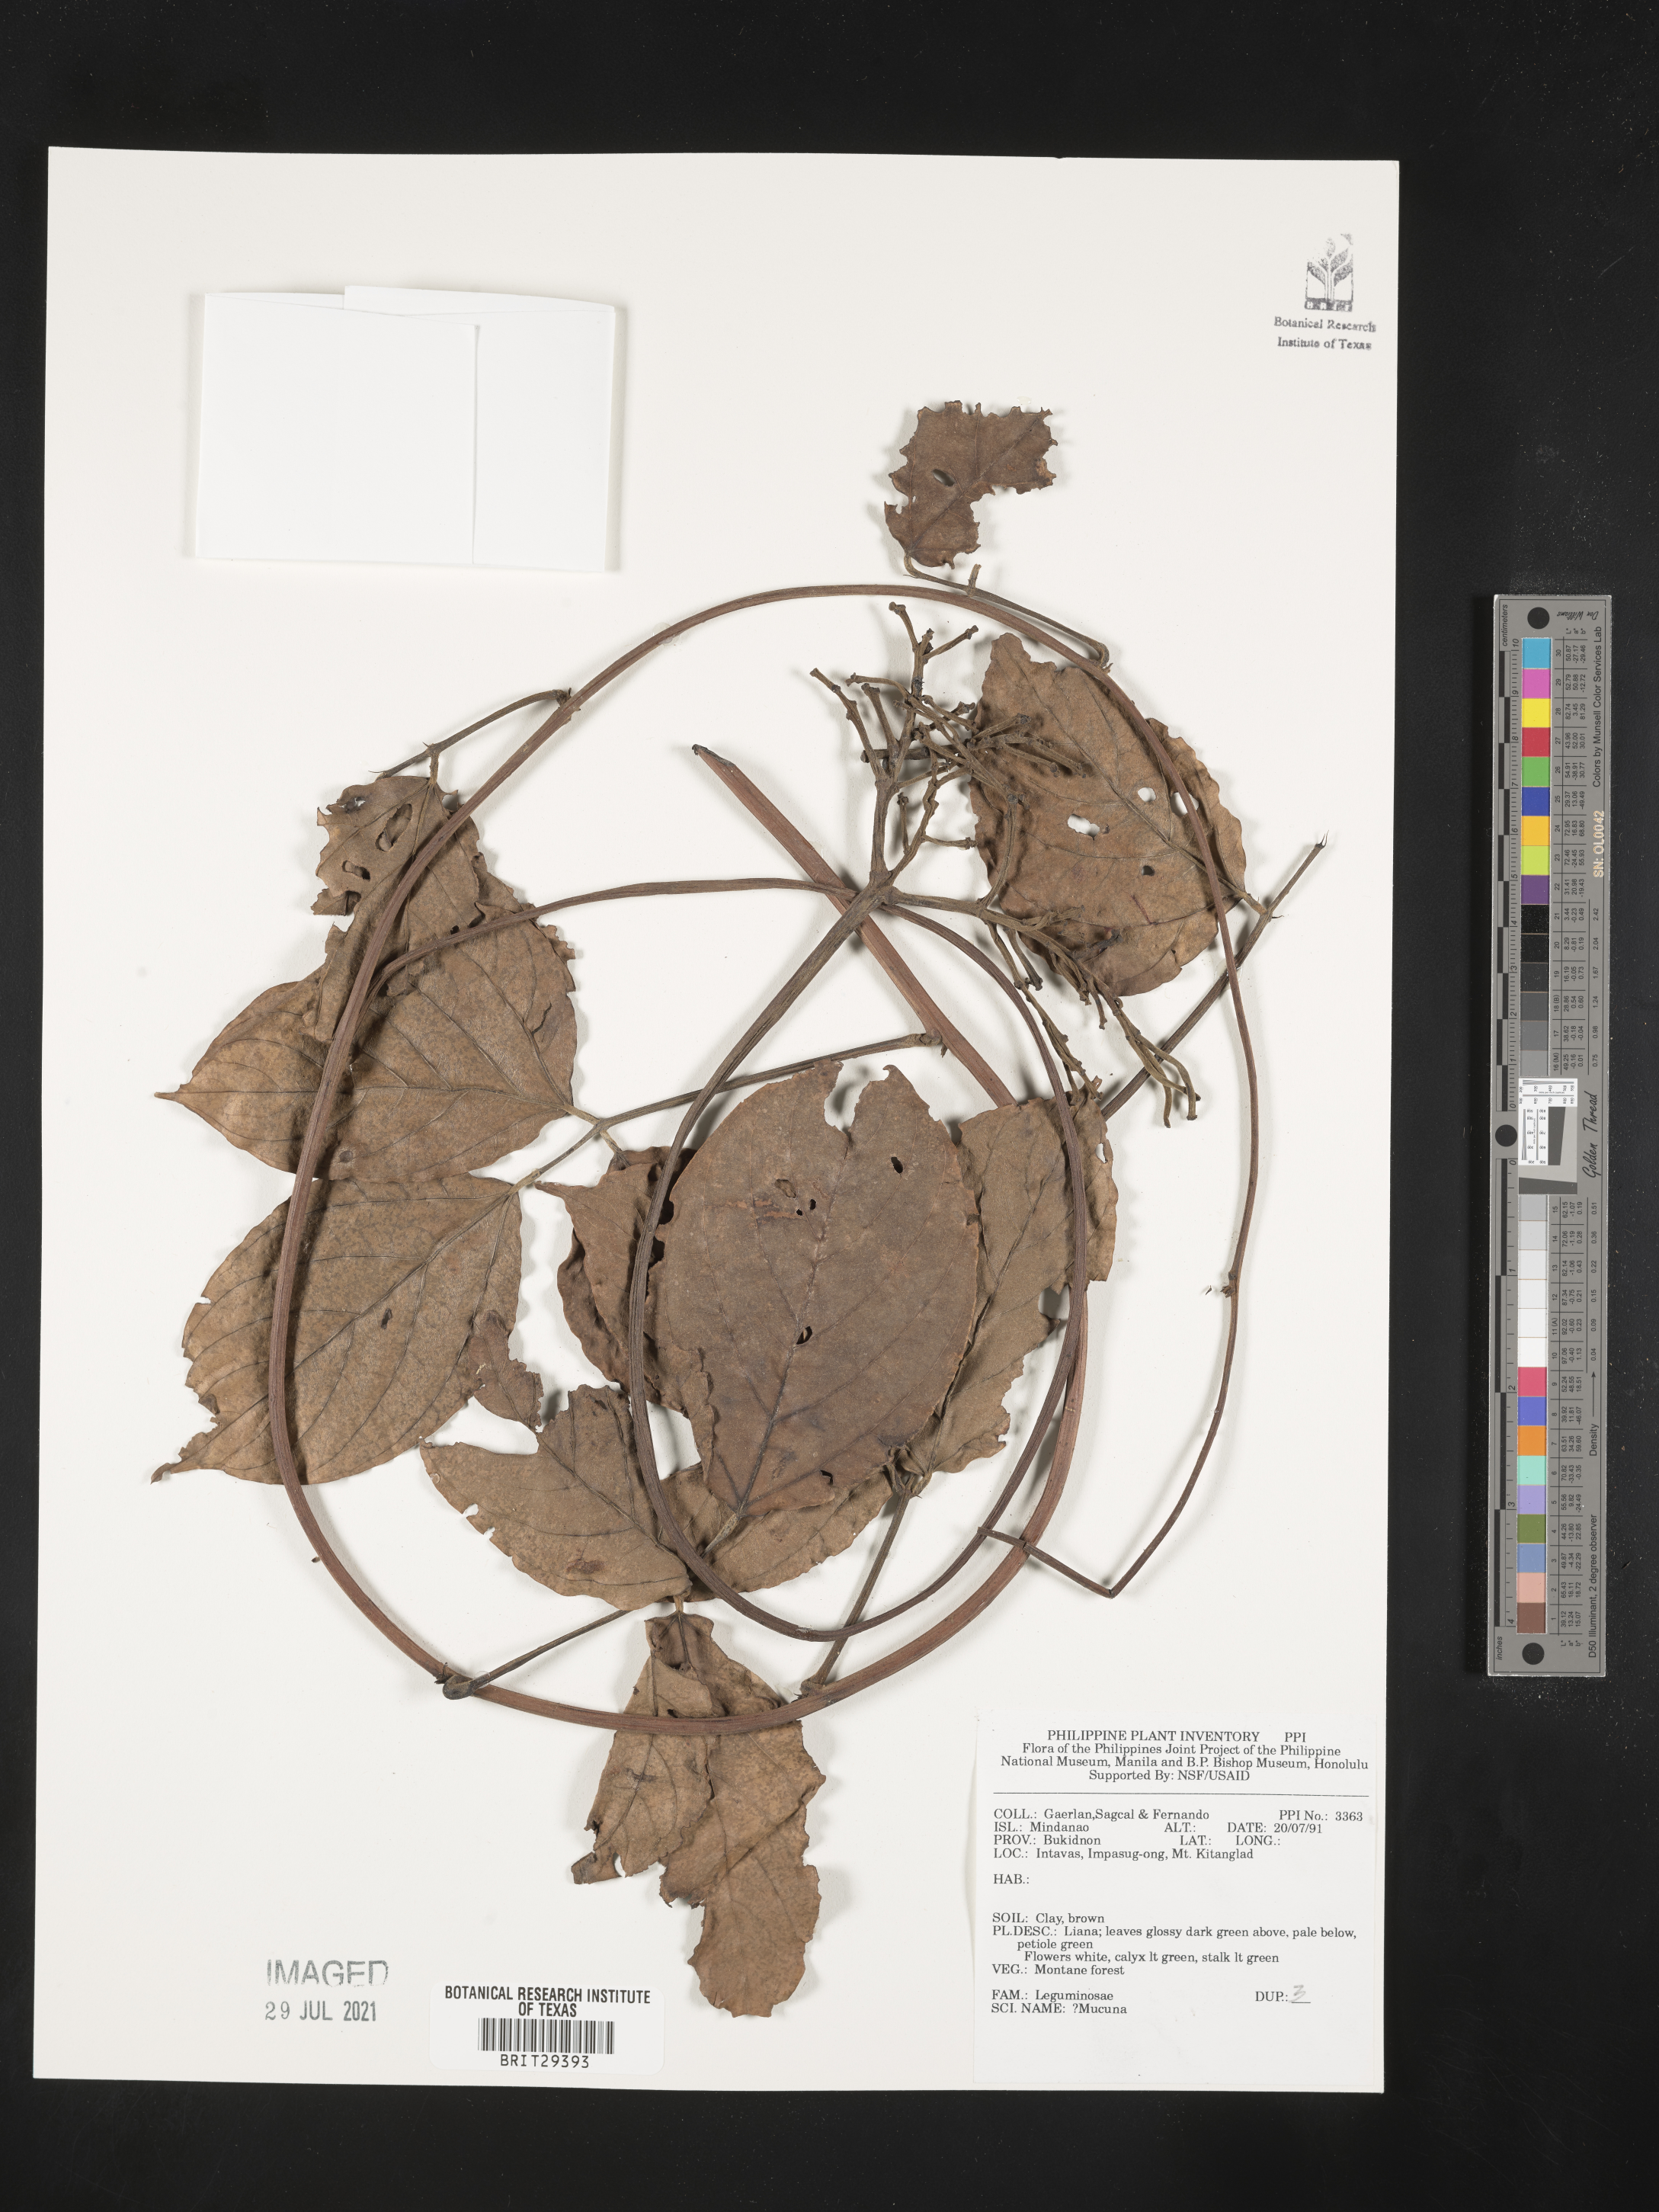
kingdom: Plantae
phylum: Tracheophyta
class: Magnoliopsida
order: Fabales
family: Fabaceae
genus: Mucuna
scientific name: Mucuna
